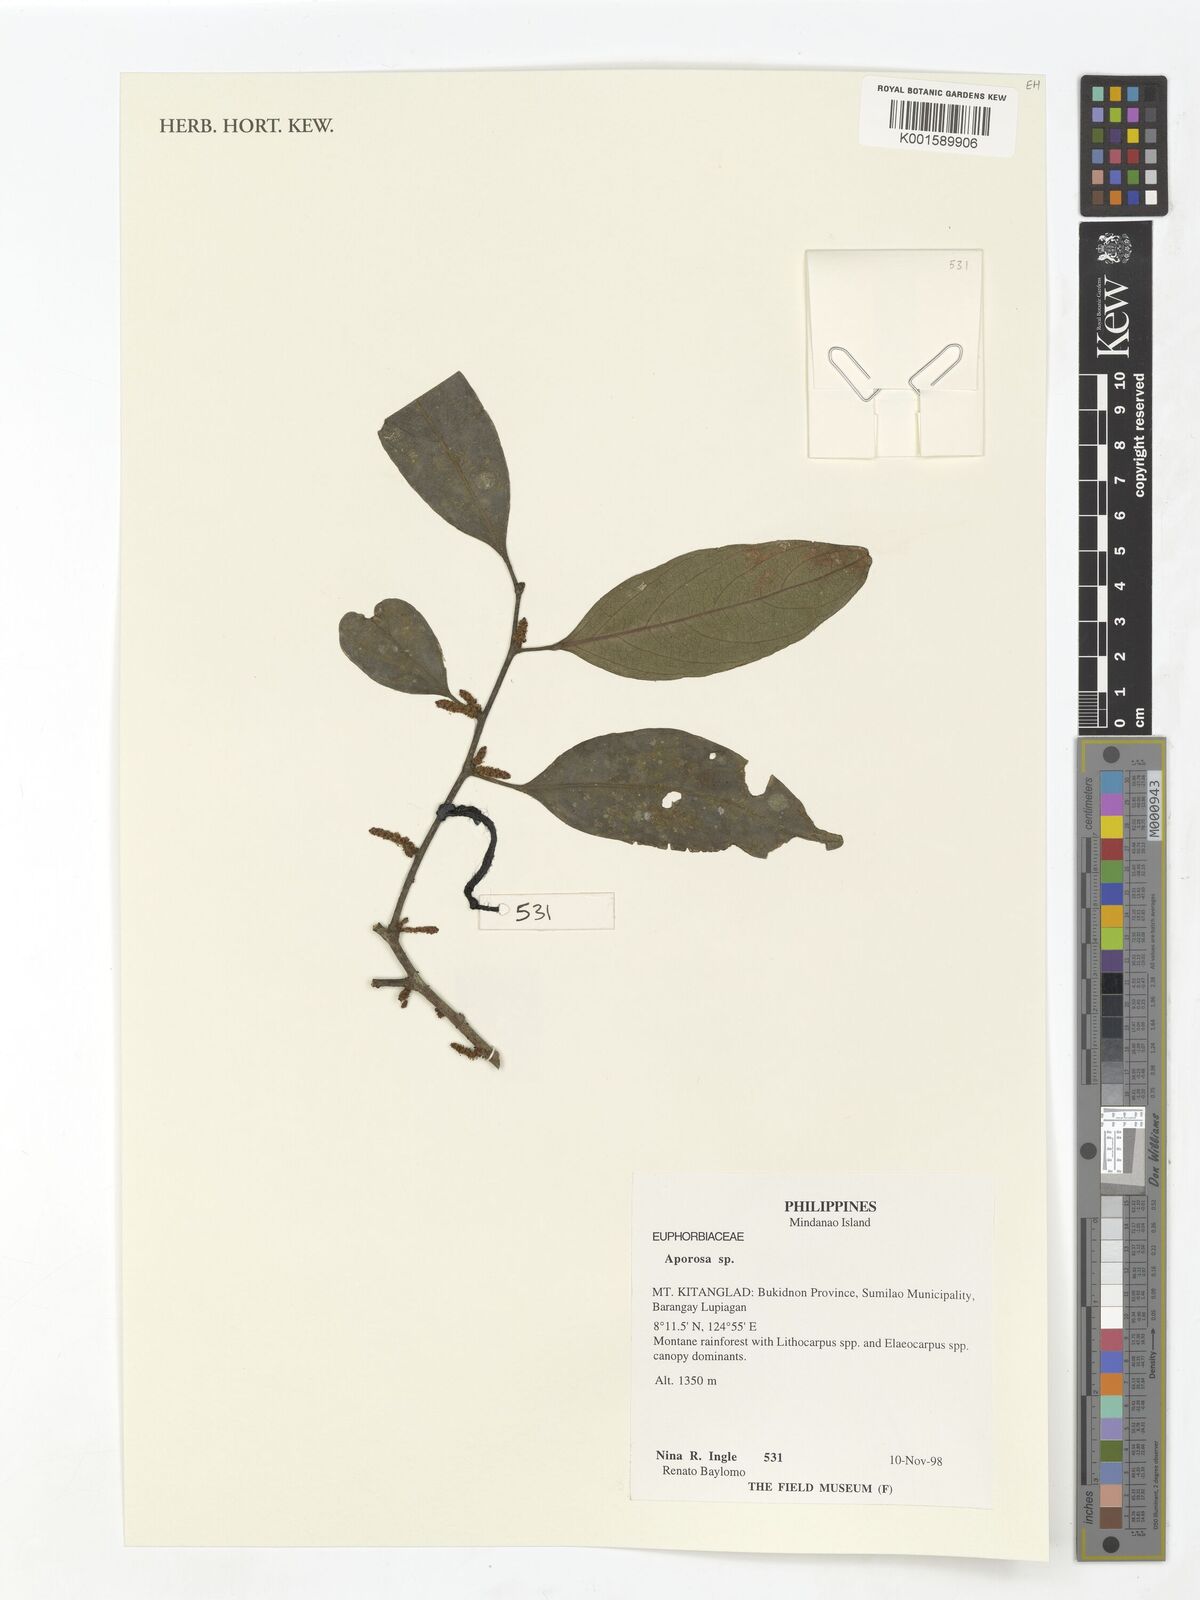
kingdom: Plantae
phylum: Tracheophyta
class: Magnoliopsida
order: Malpighiales
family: Phyllanthaceae
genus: Aporosa
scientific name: Aporosa
